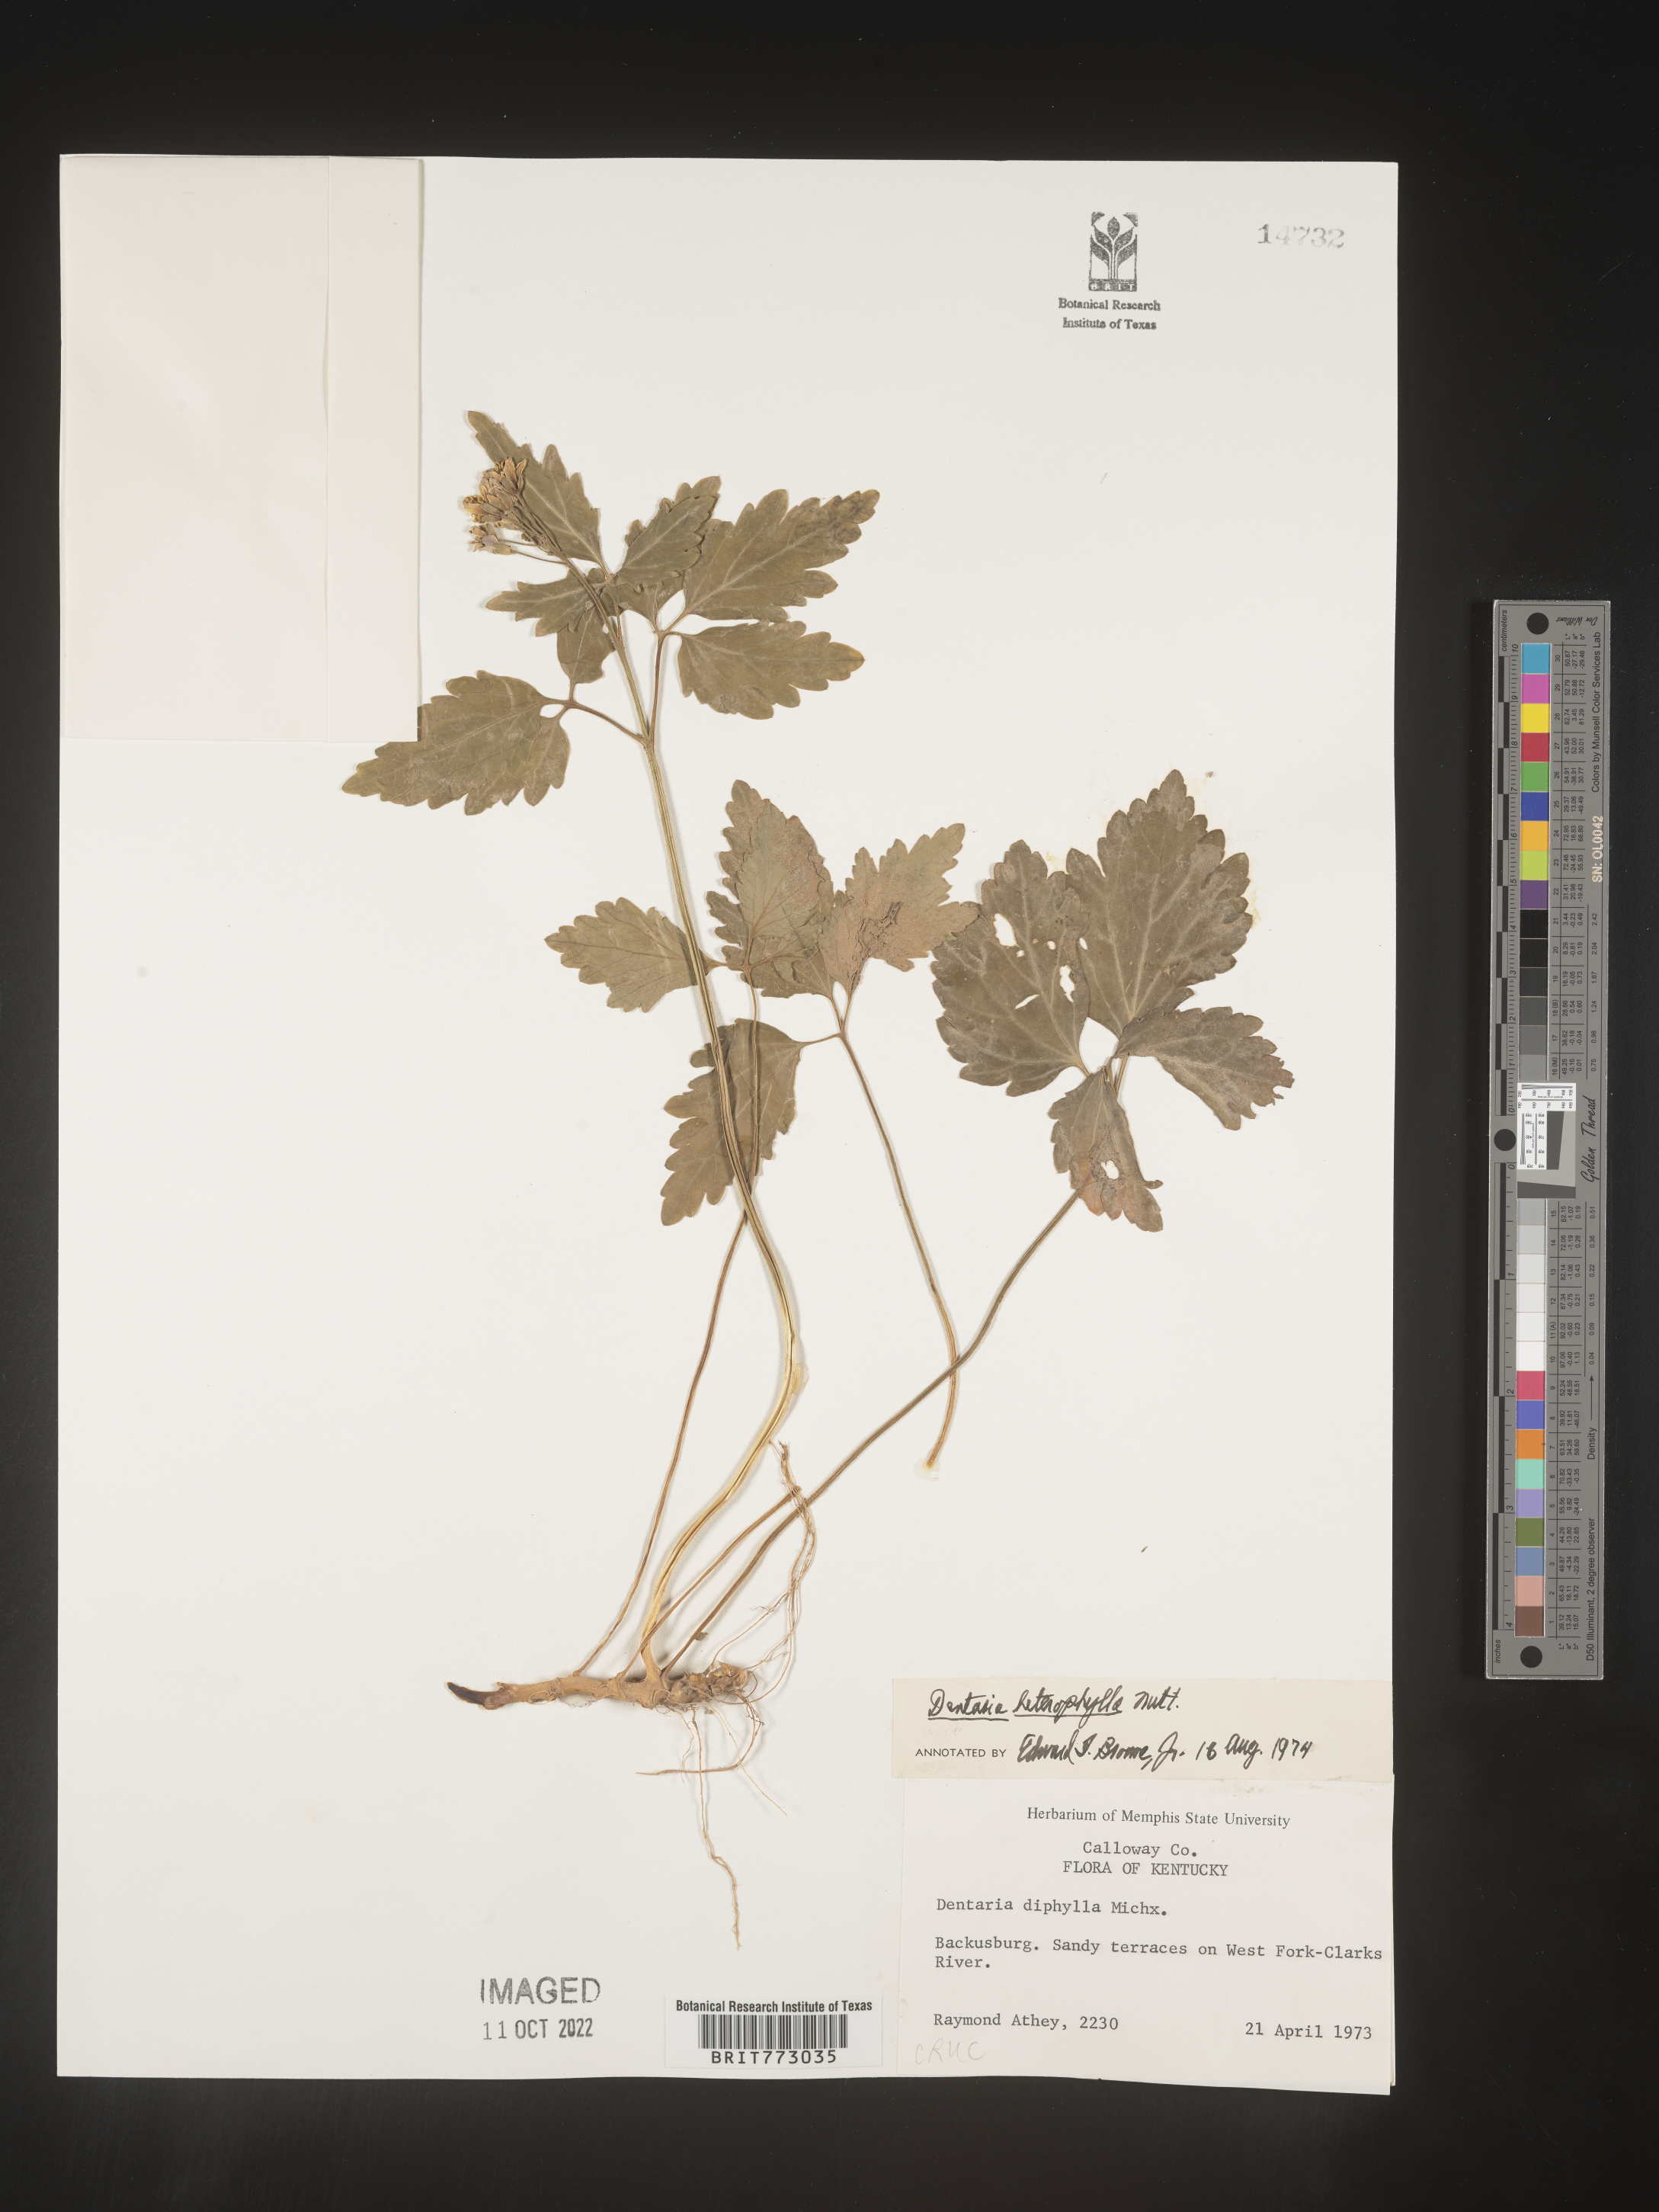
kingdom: Plantae
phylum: Tracheophyta
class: Magnoliopsida
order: Brassicales
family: Brassicaceae
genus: Cardamine
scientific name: Cardamine diphylla
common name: Broad-leaved toothwort
